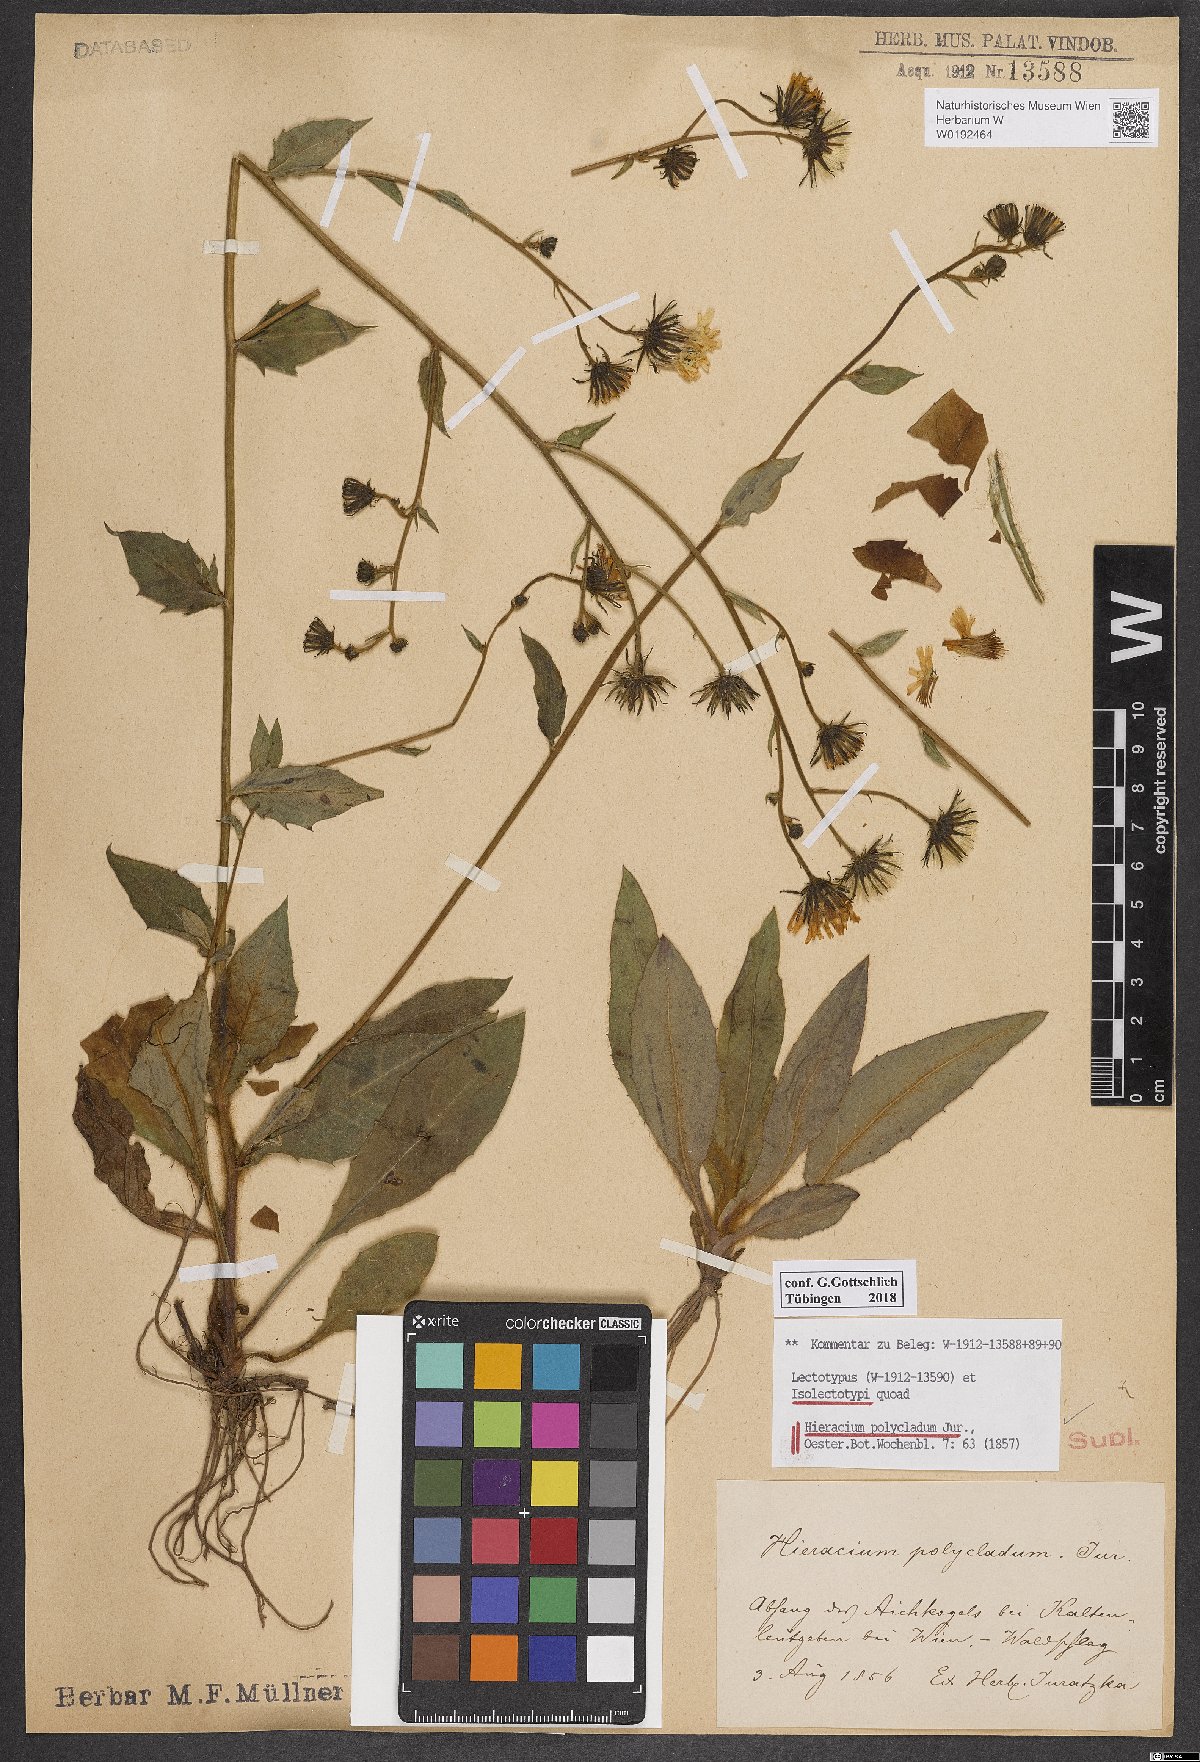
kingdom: Plantae
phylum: Tracheophyta
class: Magnoliopsida
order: Asterales
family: Asteraceae
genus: Hieracium
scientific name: Hieracium polycladum
